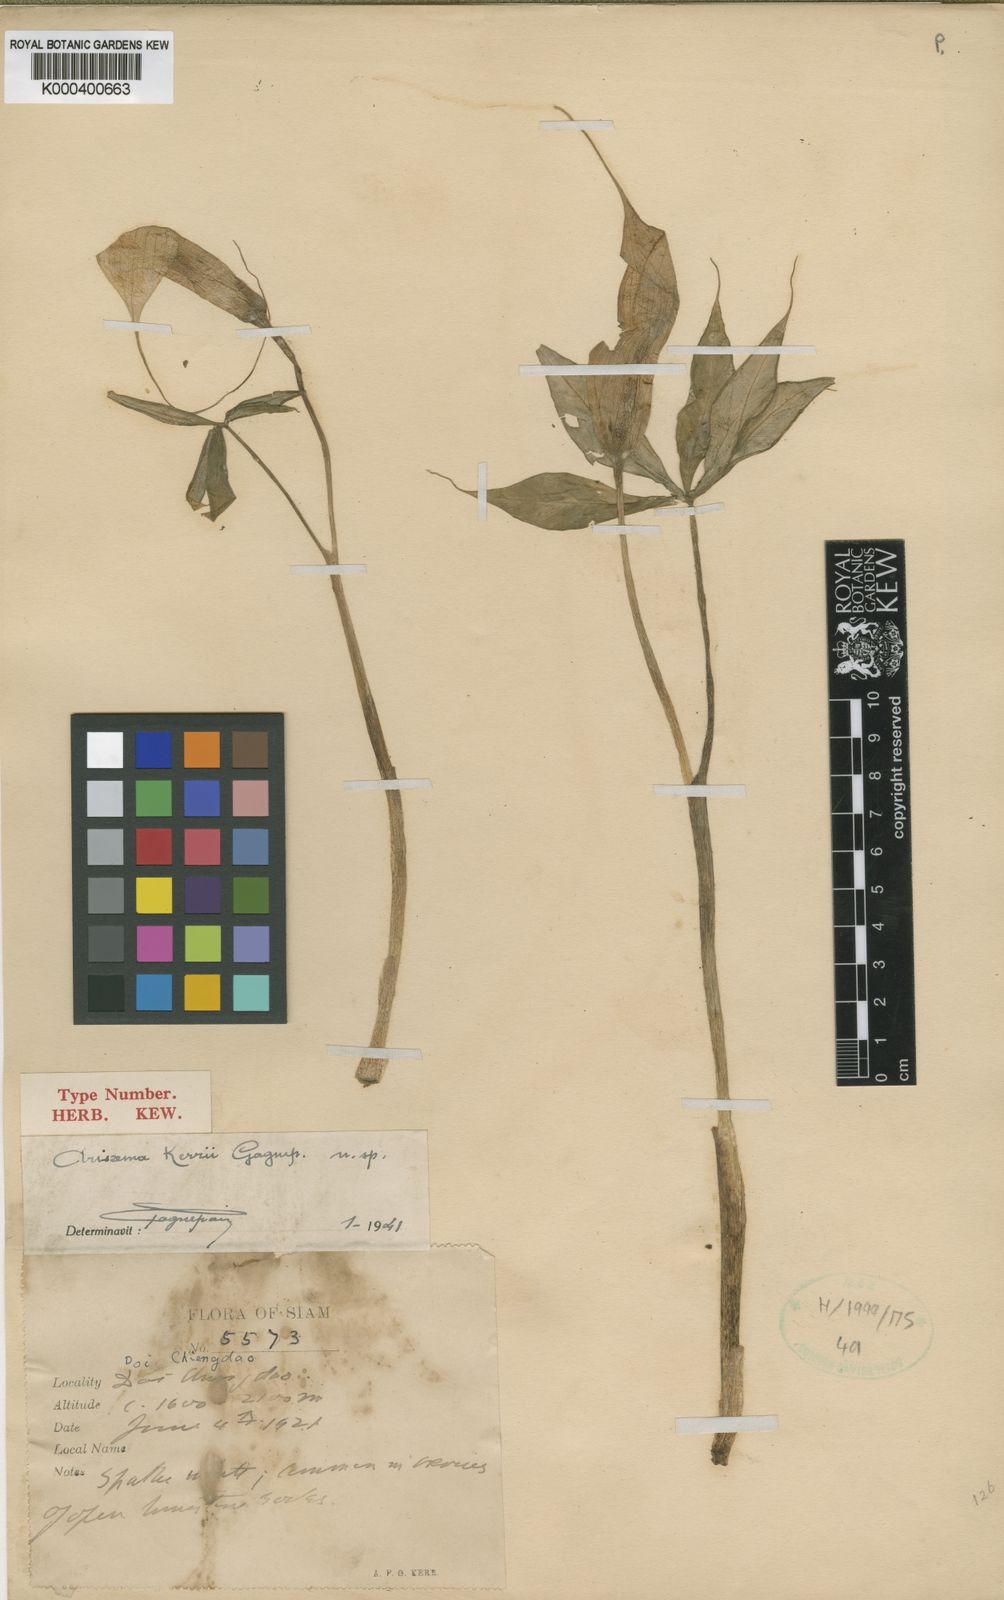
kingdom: Plantae
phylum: Tracheophyta
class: Liliopsida
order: Alismatales
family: Araceae
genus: Arisaema
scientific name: Arisaema consanguineum
